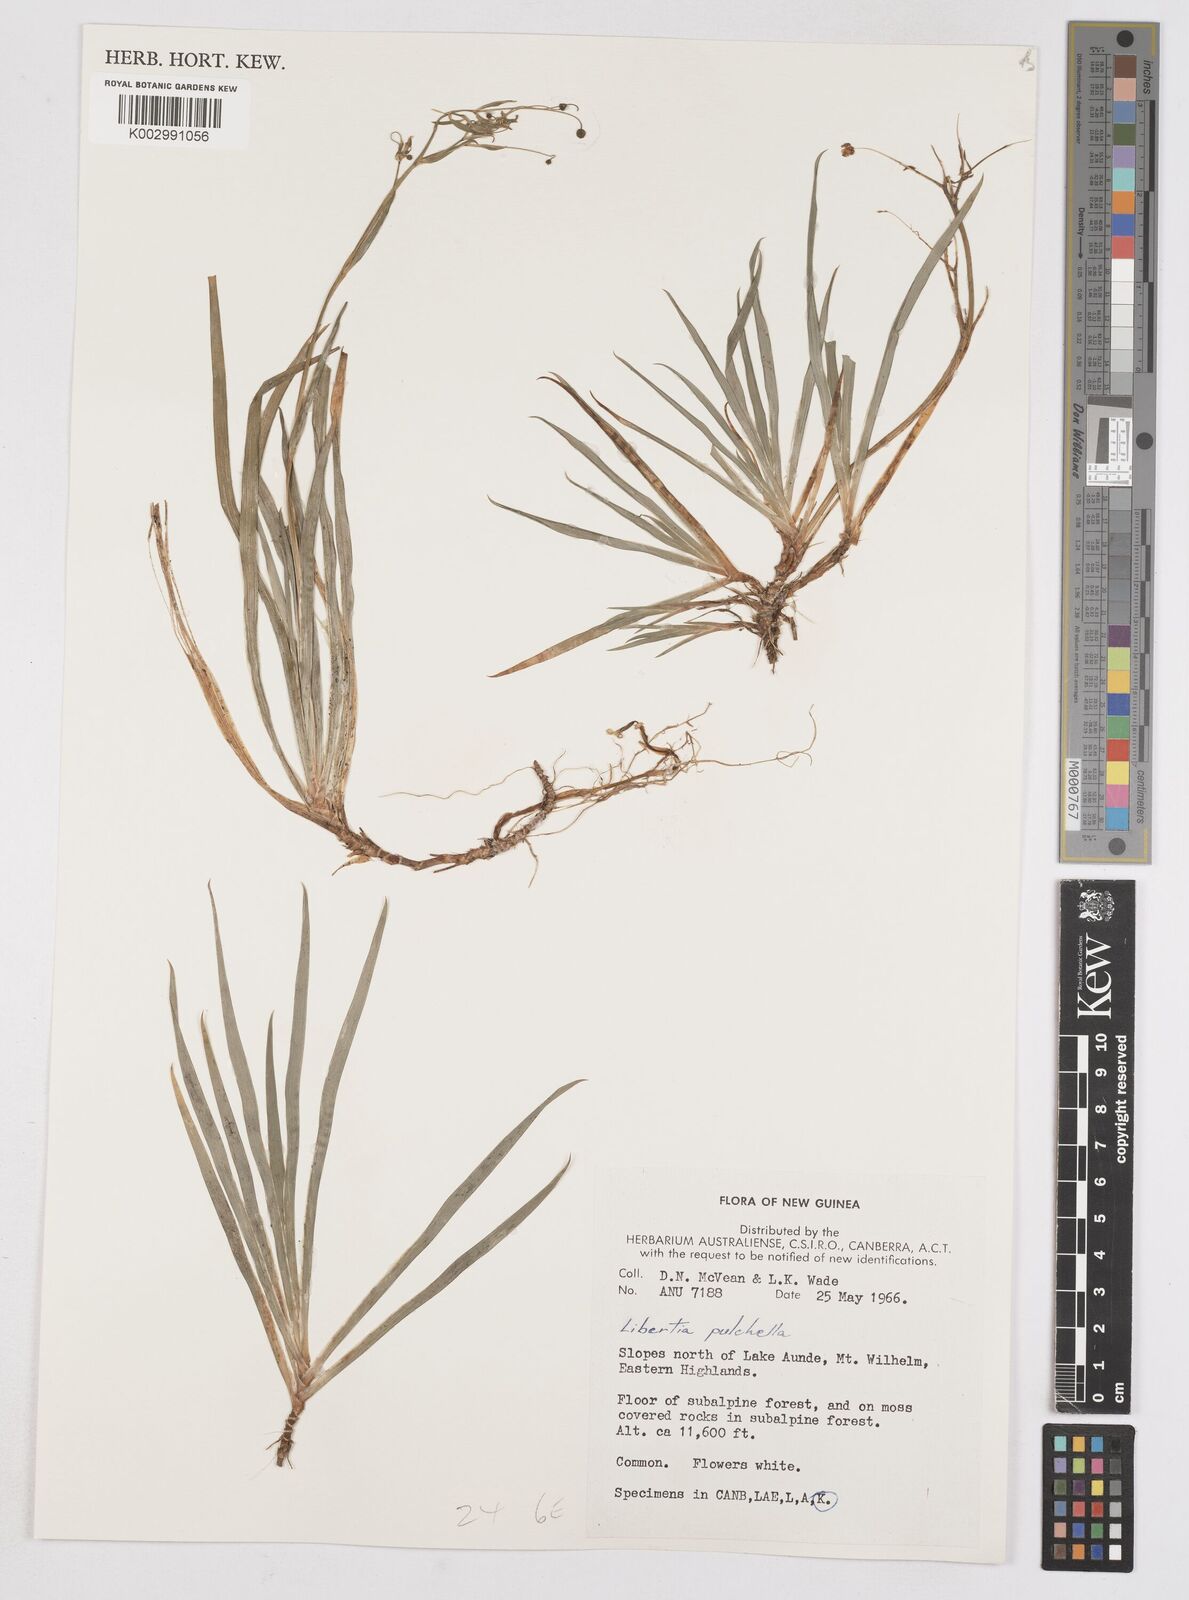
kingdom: Plantae
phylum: Tracheophyta
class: Liliopsida
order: Asparagales
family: Iridaceae
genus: Libertia
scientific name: Libertia pulchella
